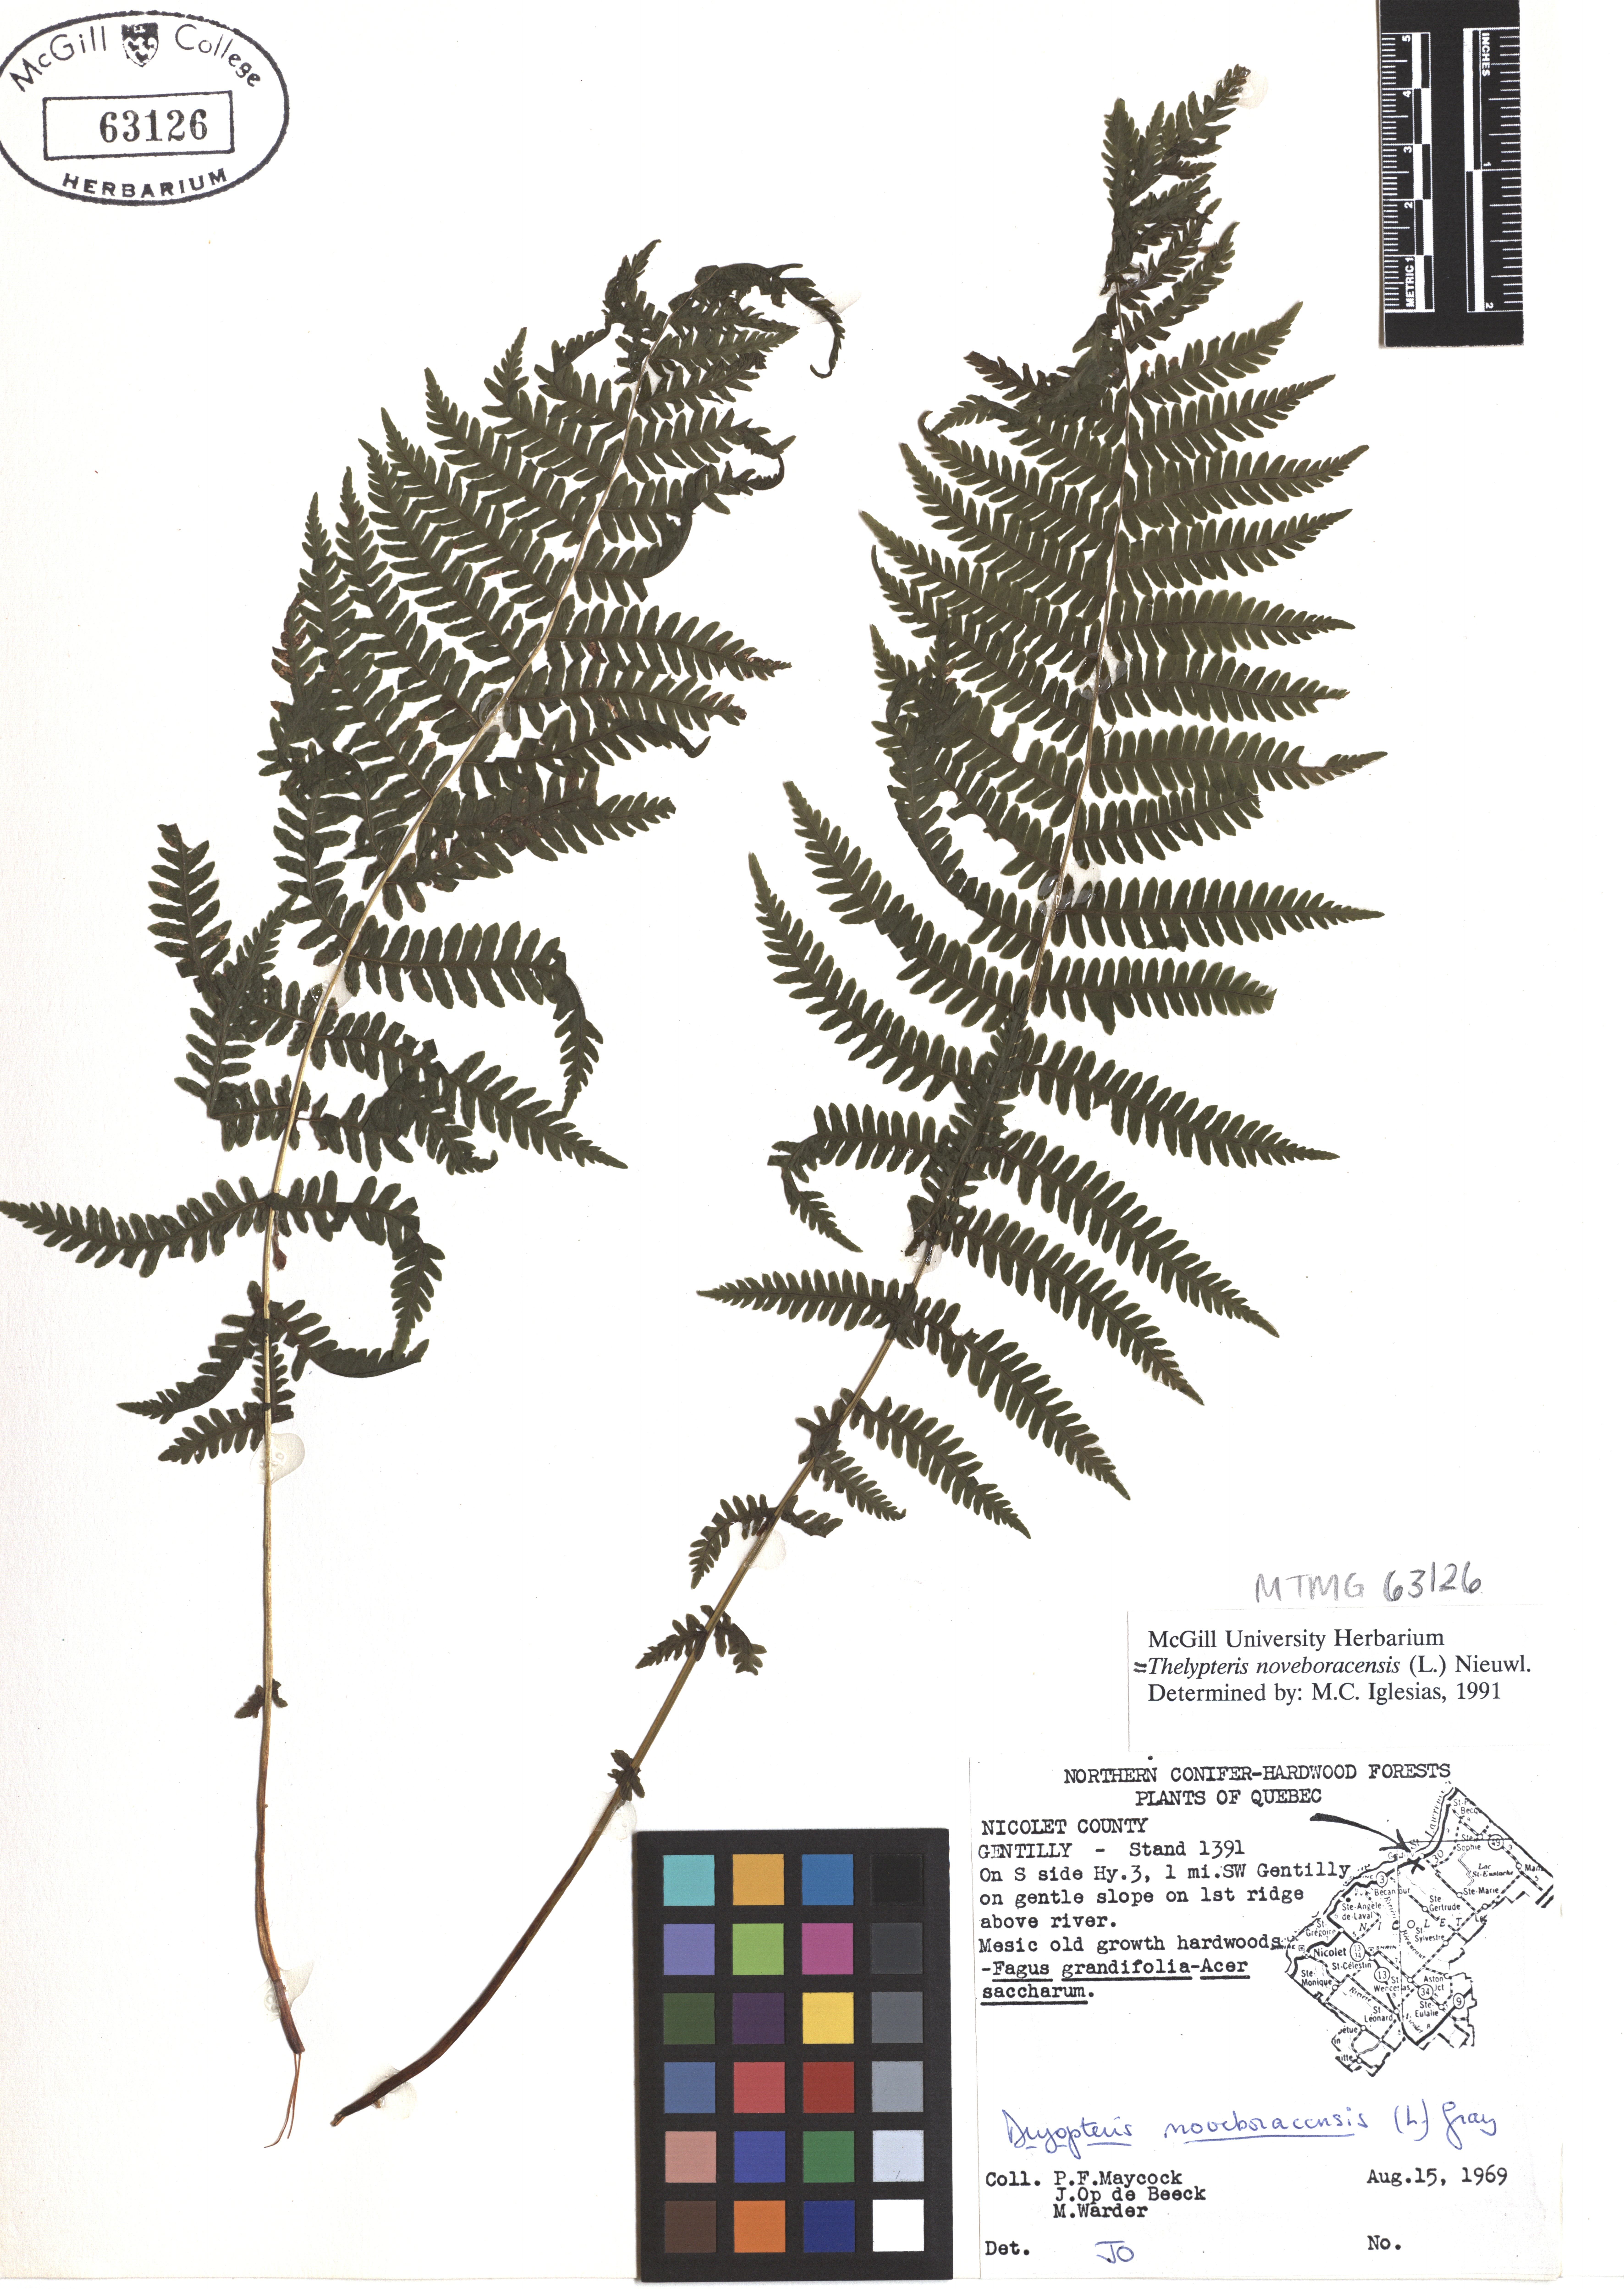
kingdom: Plantae
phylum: Tracheophyta
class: Polypodiopsida
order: Polypodiales
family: Thelypteridaceae
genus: Amauropelta
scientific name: Amauropelta noveboracensis
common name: New york fern
